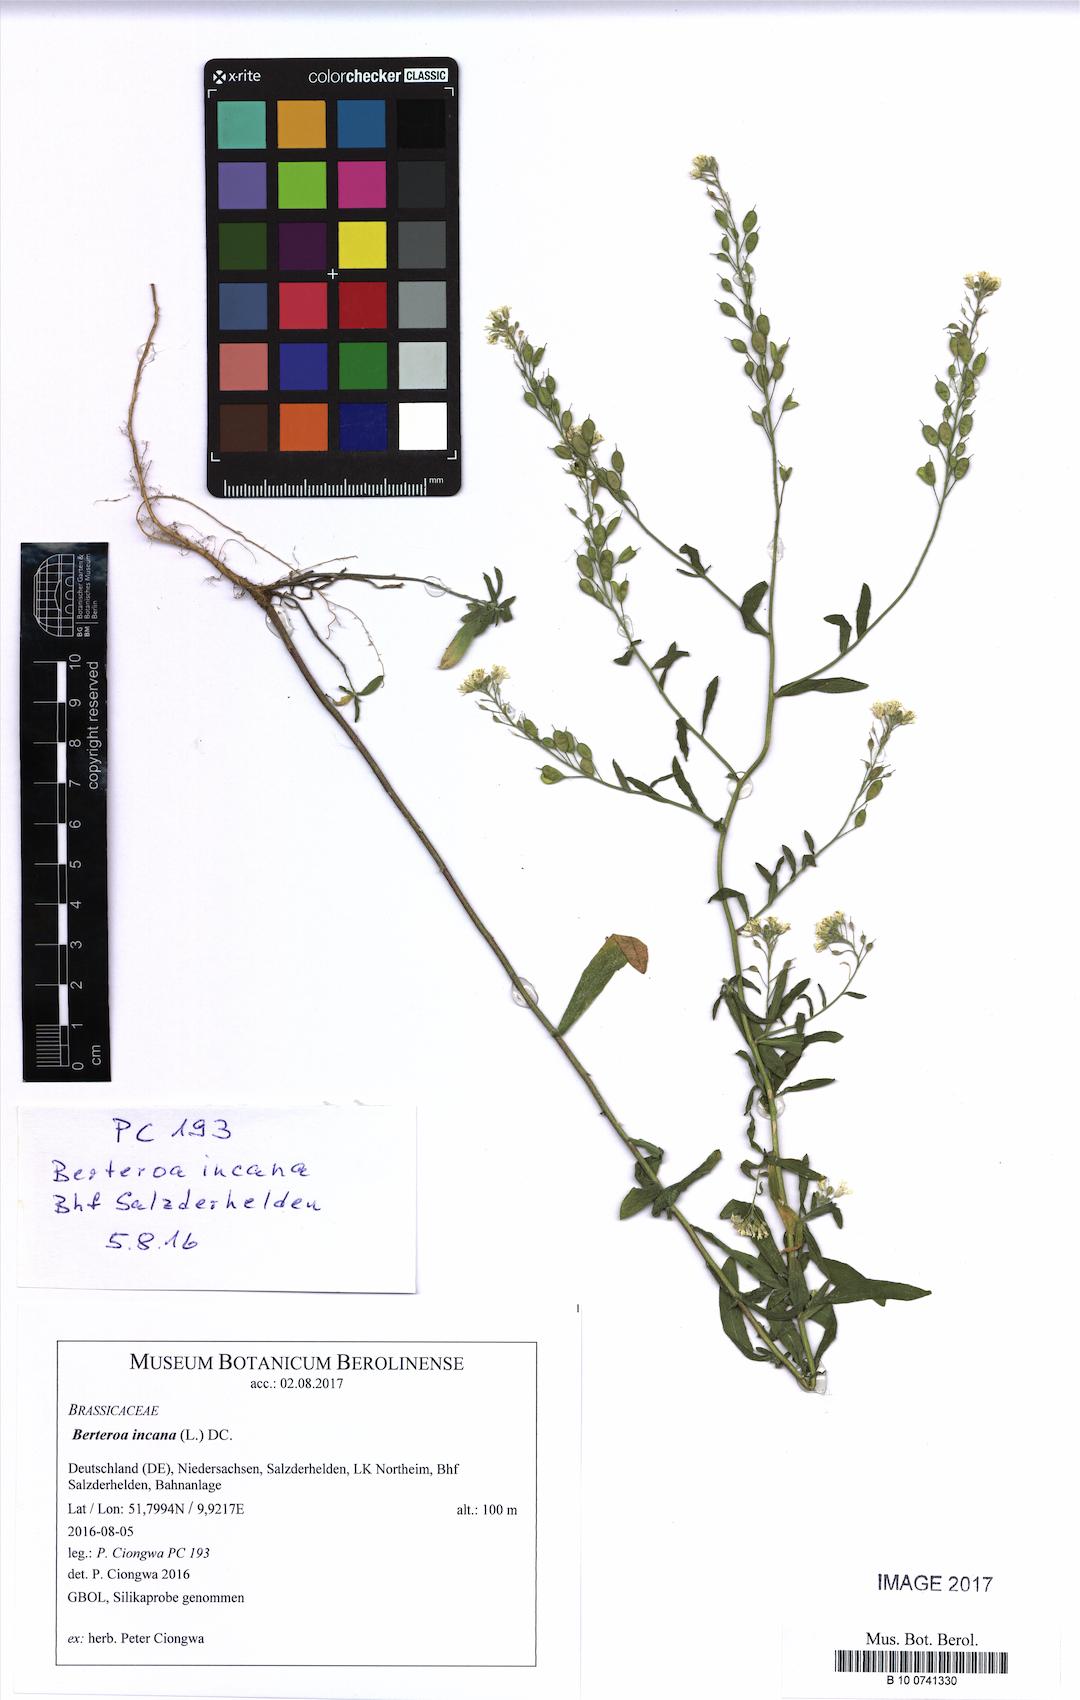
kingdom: Plantae
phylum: Tracheophyta
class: Magnoliopsida
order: Brassicales
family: Brassicaceae
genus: Berteroa
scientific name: Berteroa incana
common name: Hoary alison
